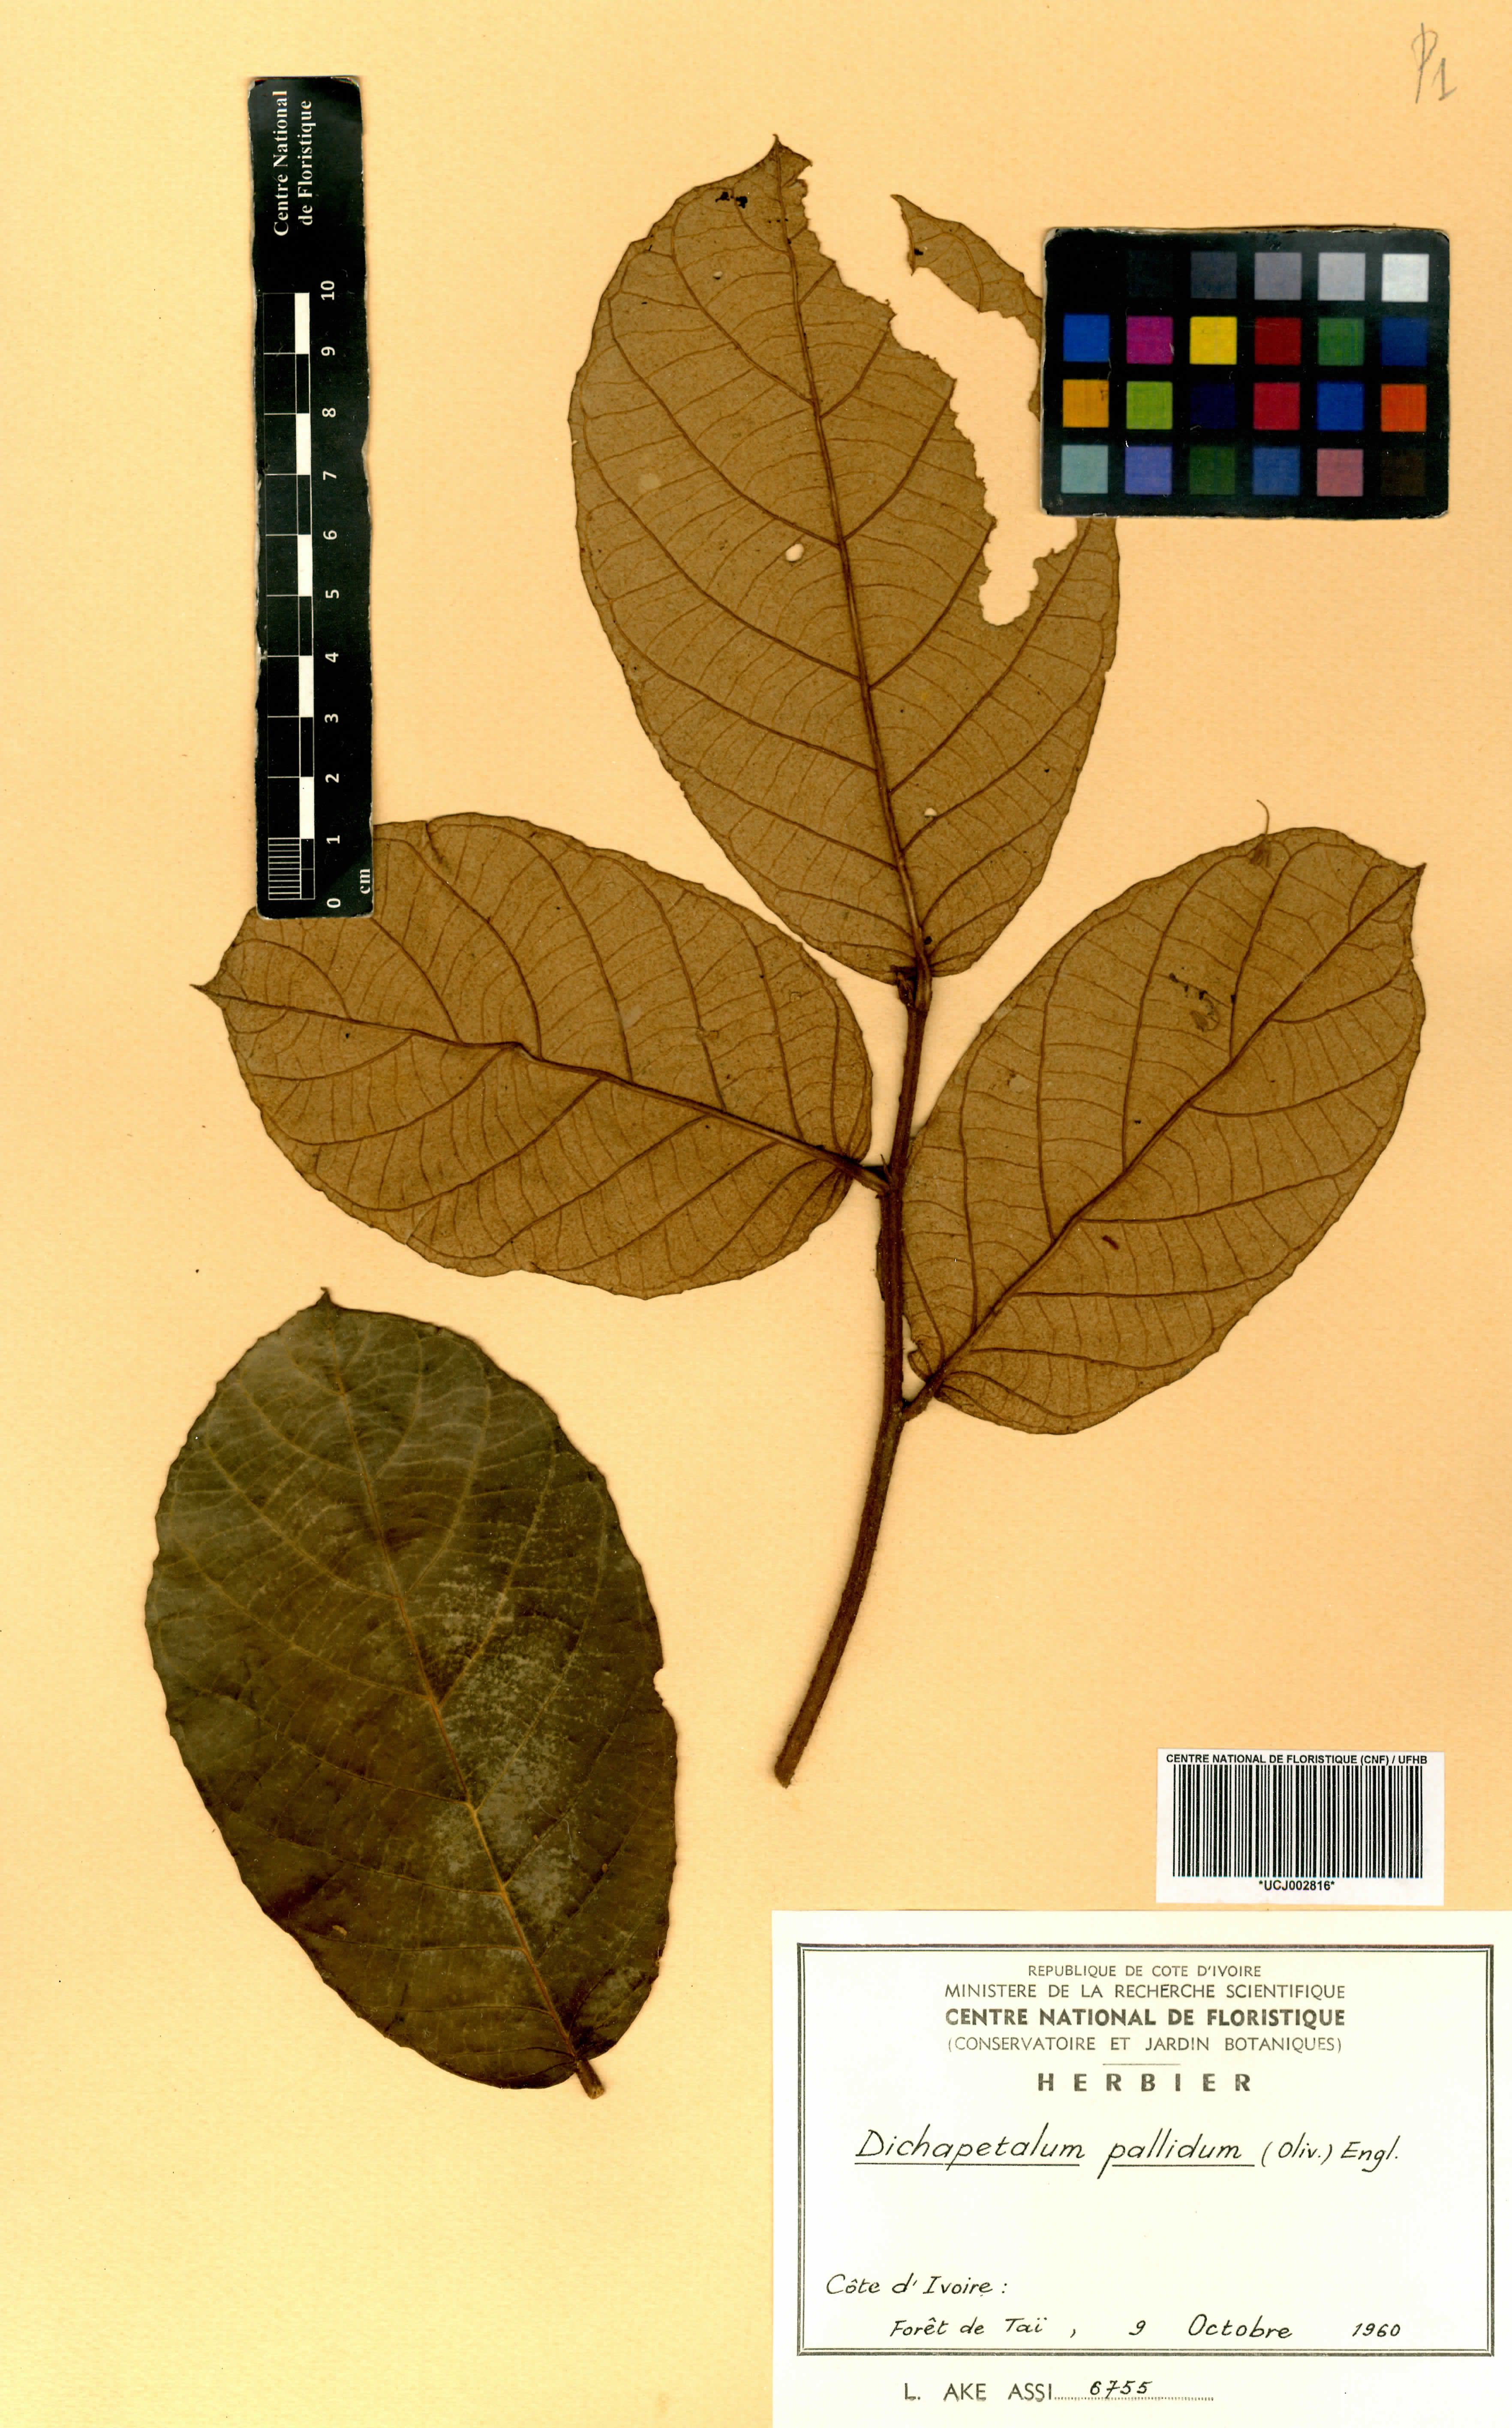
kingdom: Plantae
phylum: Tracheophyta
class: Magnoliopsida
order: Malpighiales
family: Dichapetalaceae
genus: Dichapetalum
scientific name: Dichapetalum pallidum
